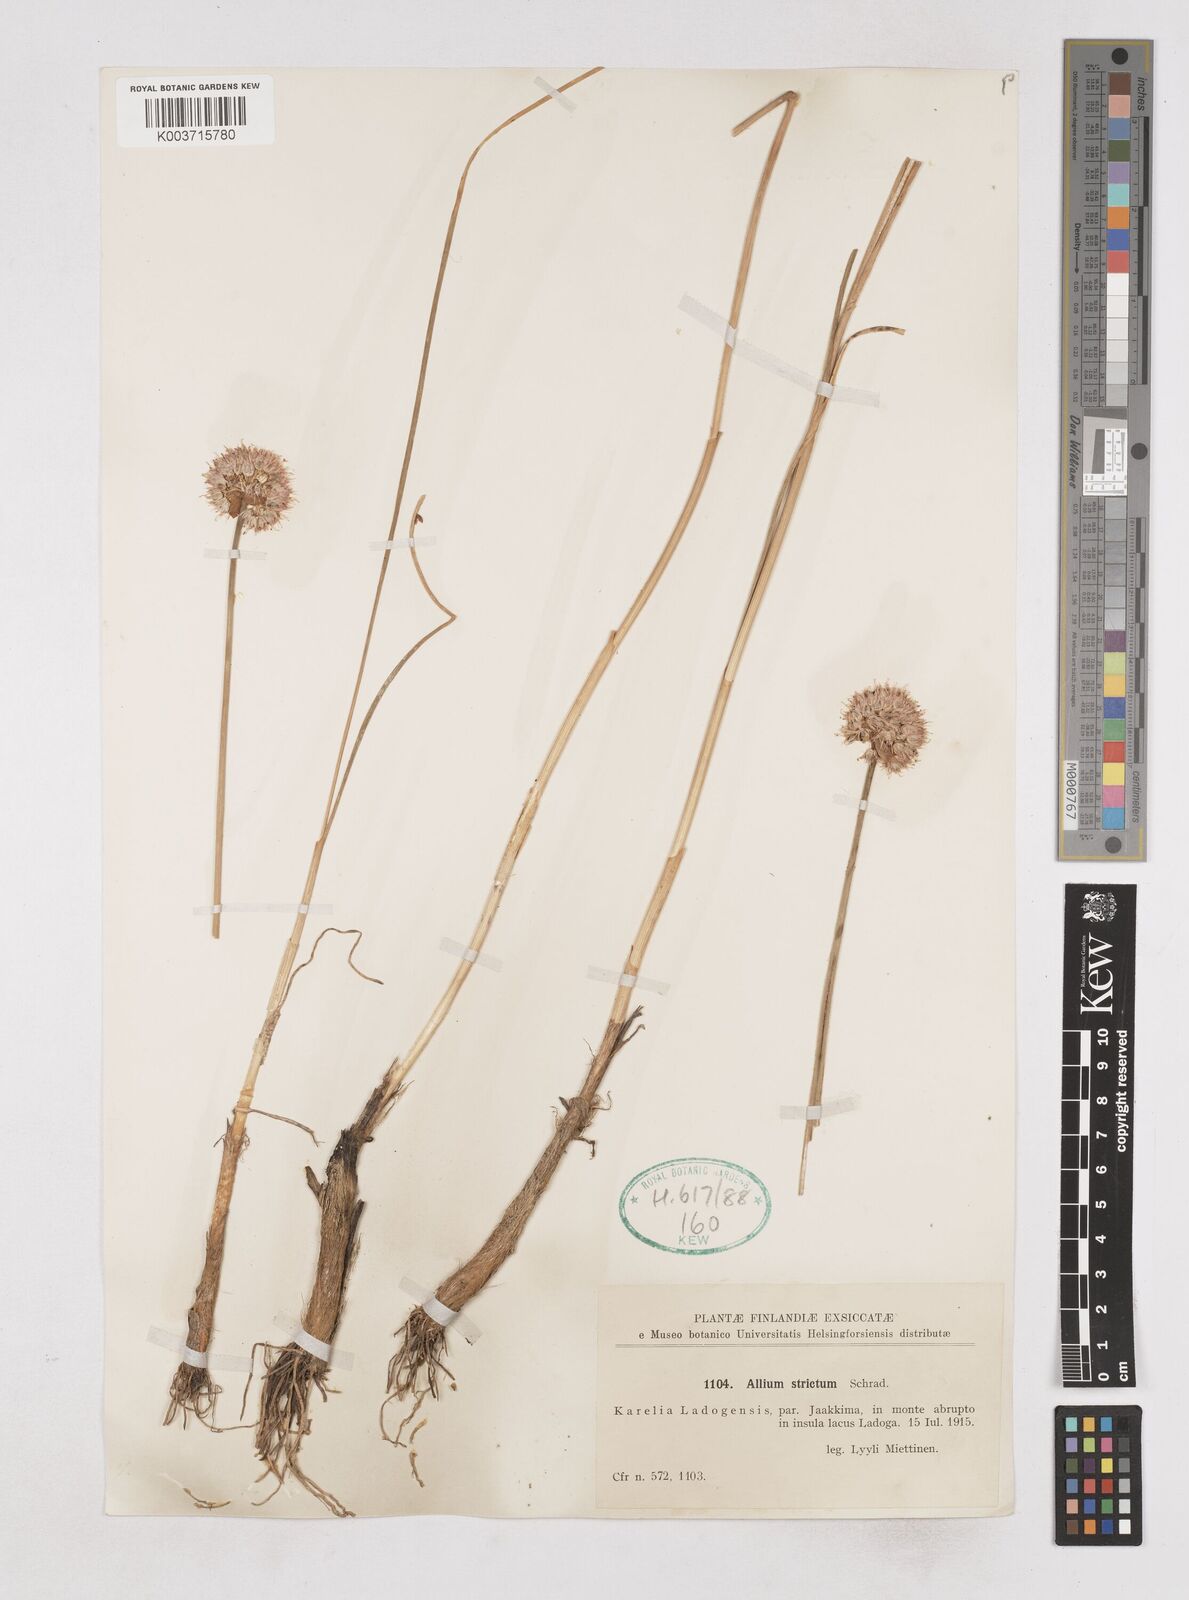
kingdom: Plantae
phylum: Tracheophyta
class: Liliopsida
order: Asparagales
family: Amaryllidaceae
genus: Allium
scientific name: Allium strictum
